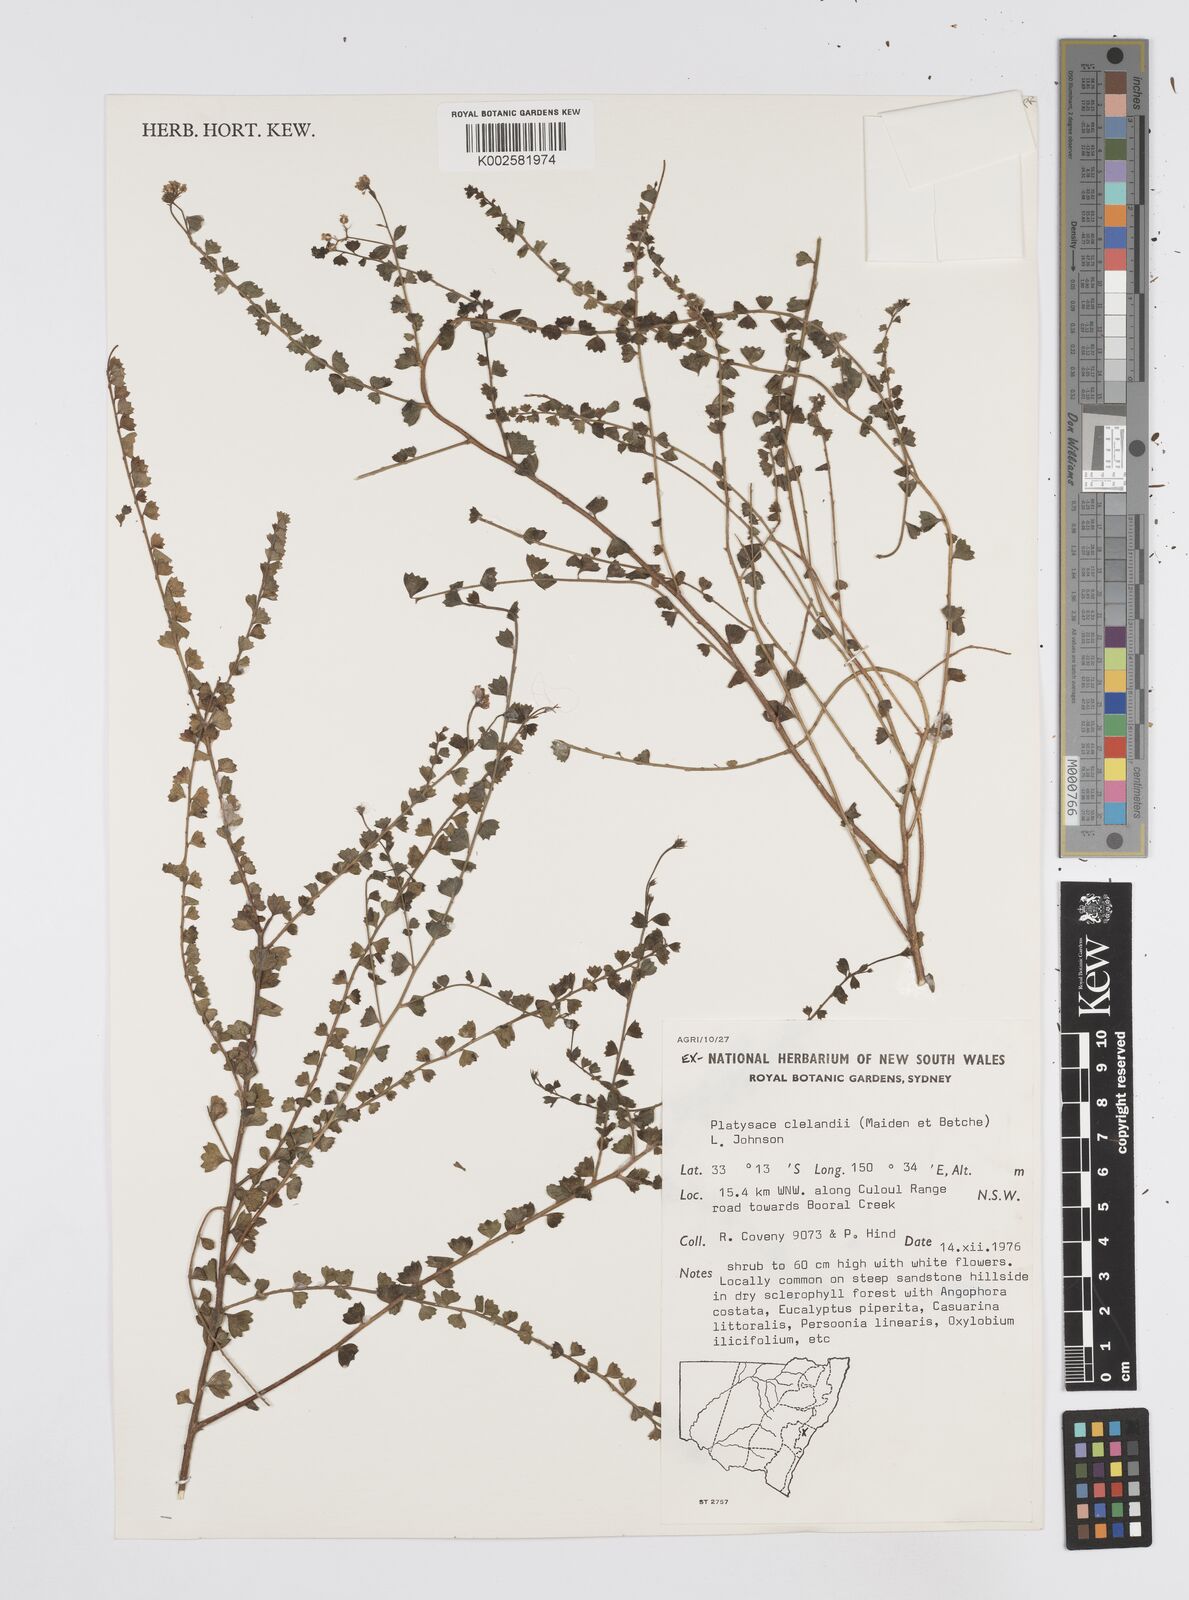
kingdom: Plantae
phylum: Tracheophyta
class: Magnoliopsida
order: Apiales
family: Apiaceae
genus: Platysace
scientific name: Platysace clelandii
